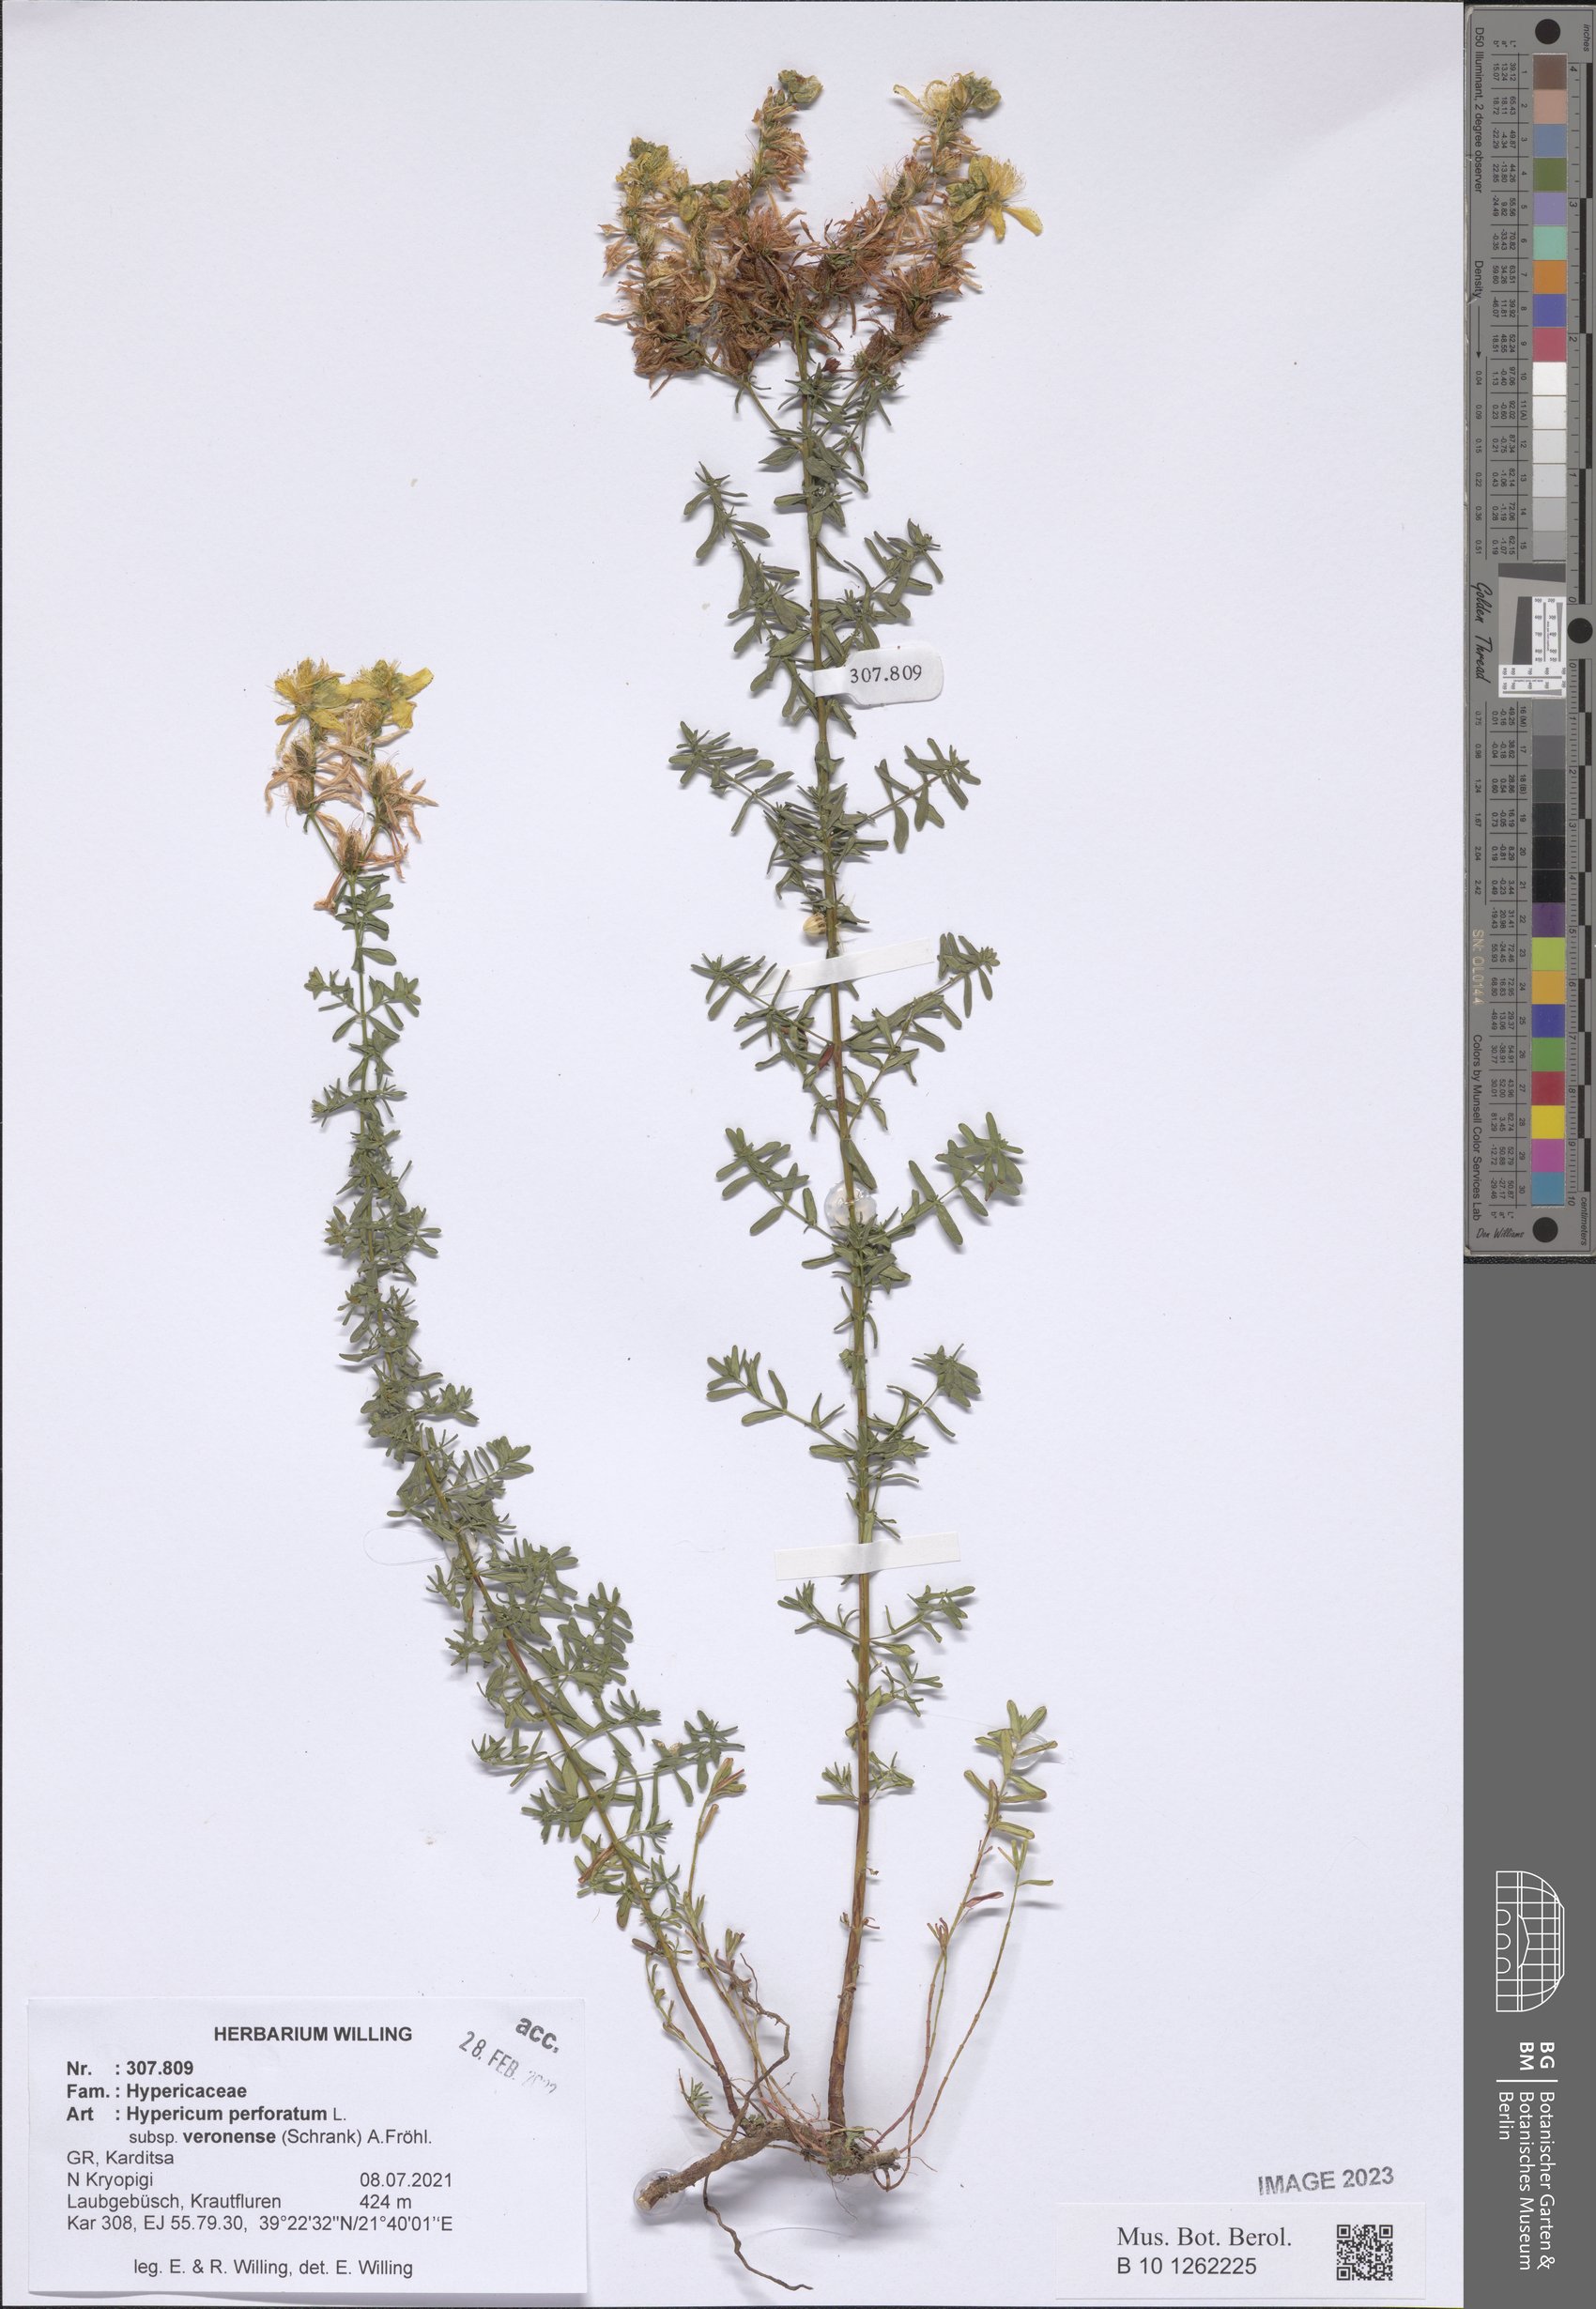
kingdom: Plantae
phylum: Tracheophyta
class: Magnoliopsida
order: Malpighiales
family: Hypericaceae
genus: Hypericum
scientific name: Hypericum veronense
